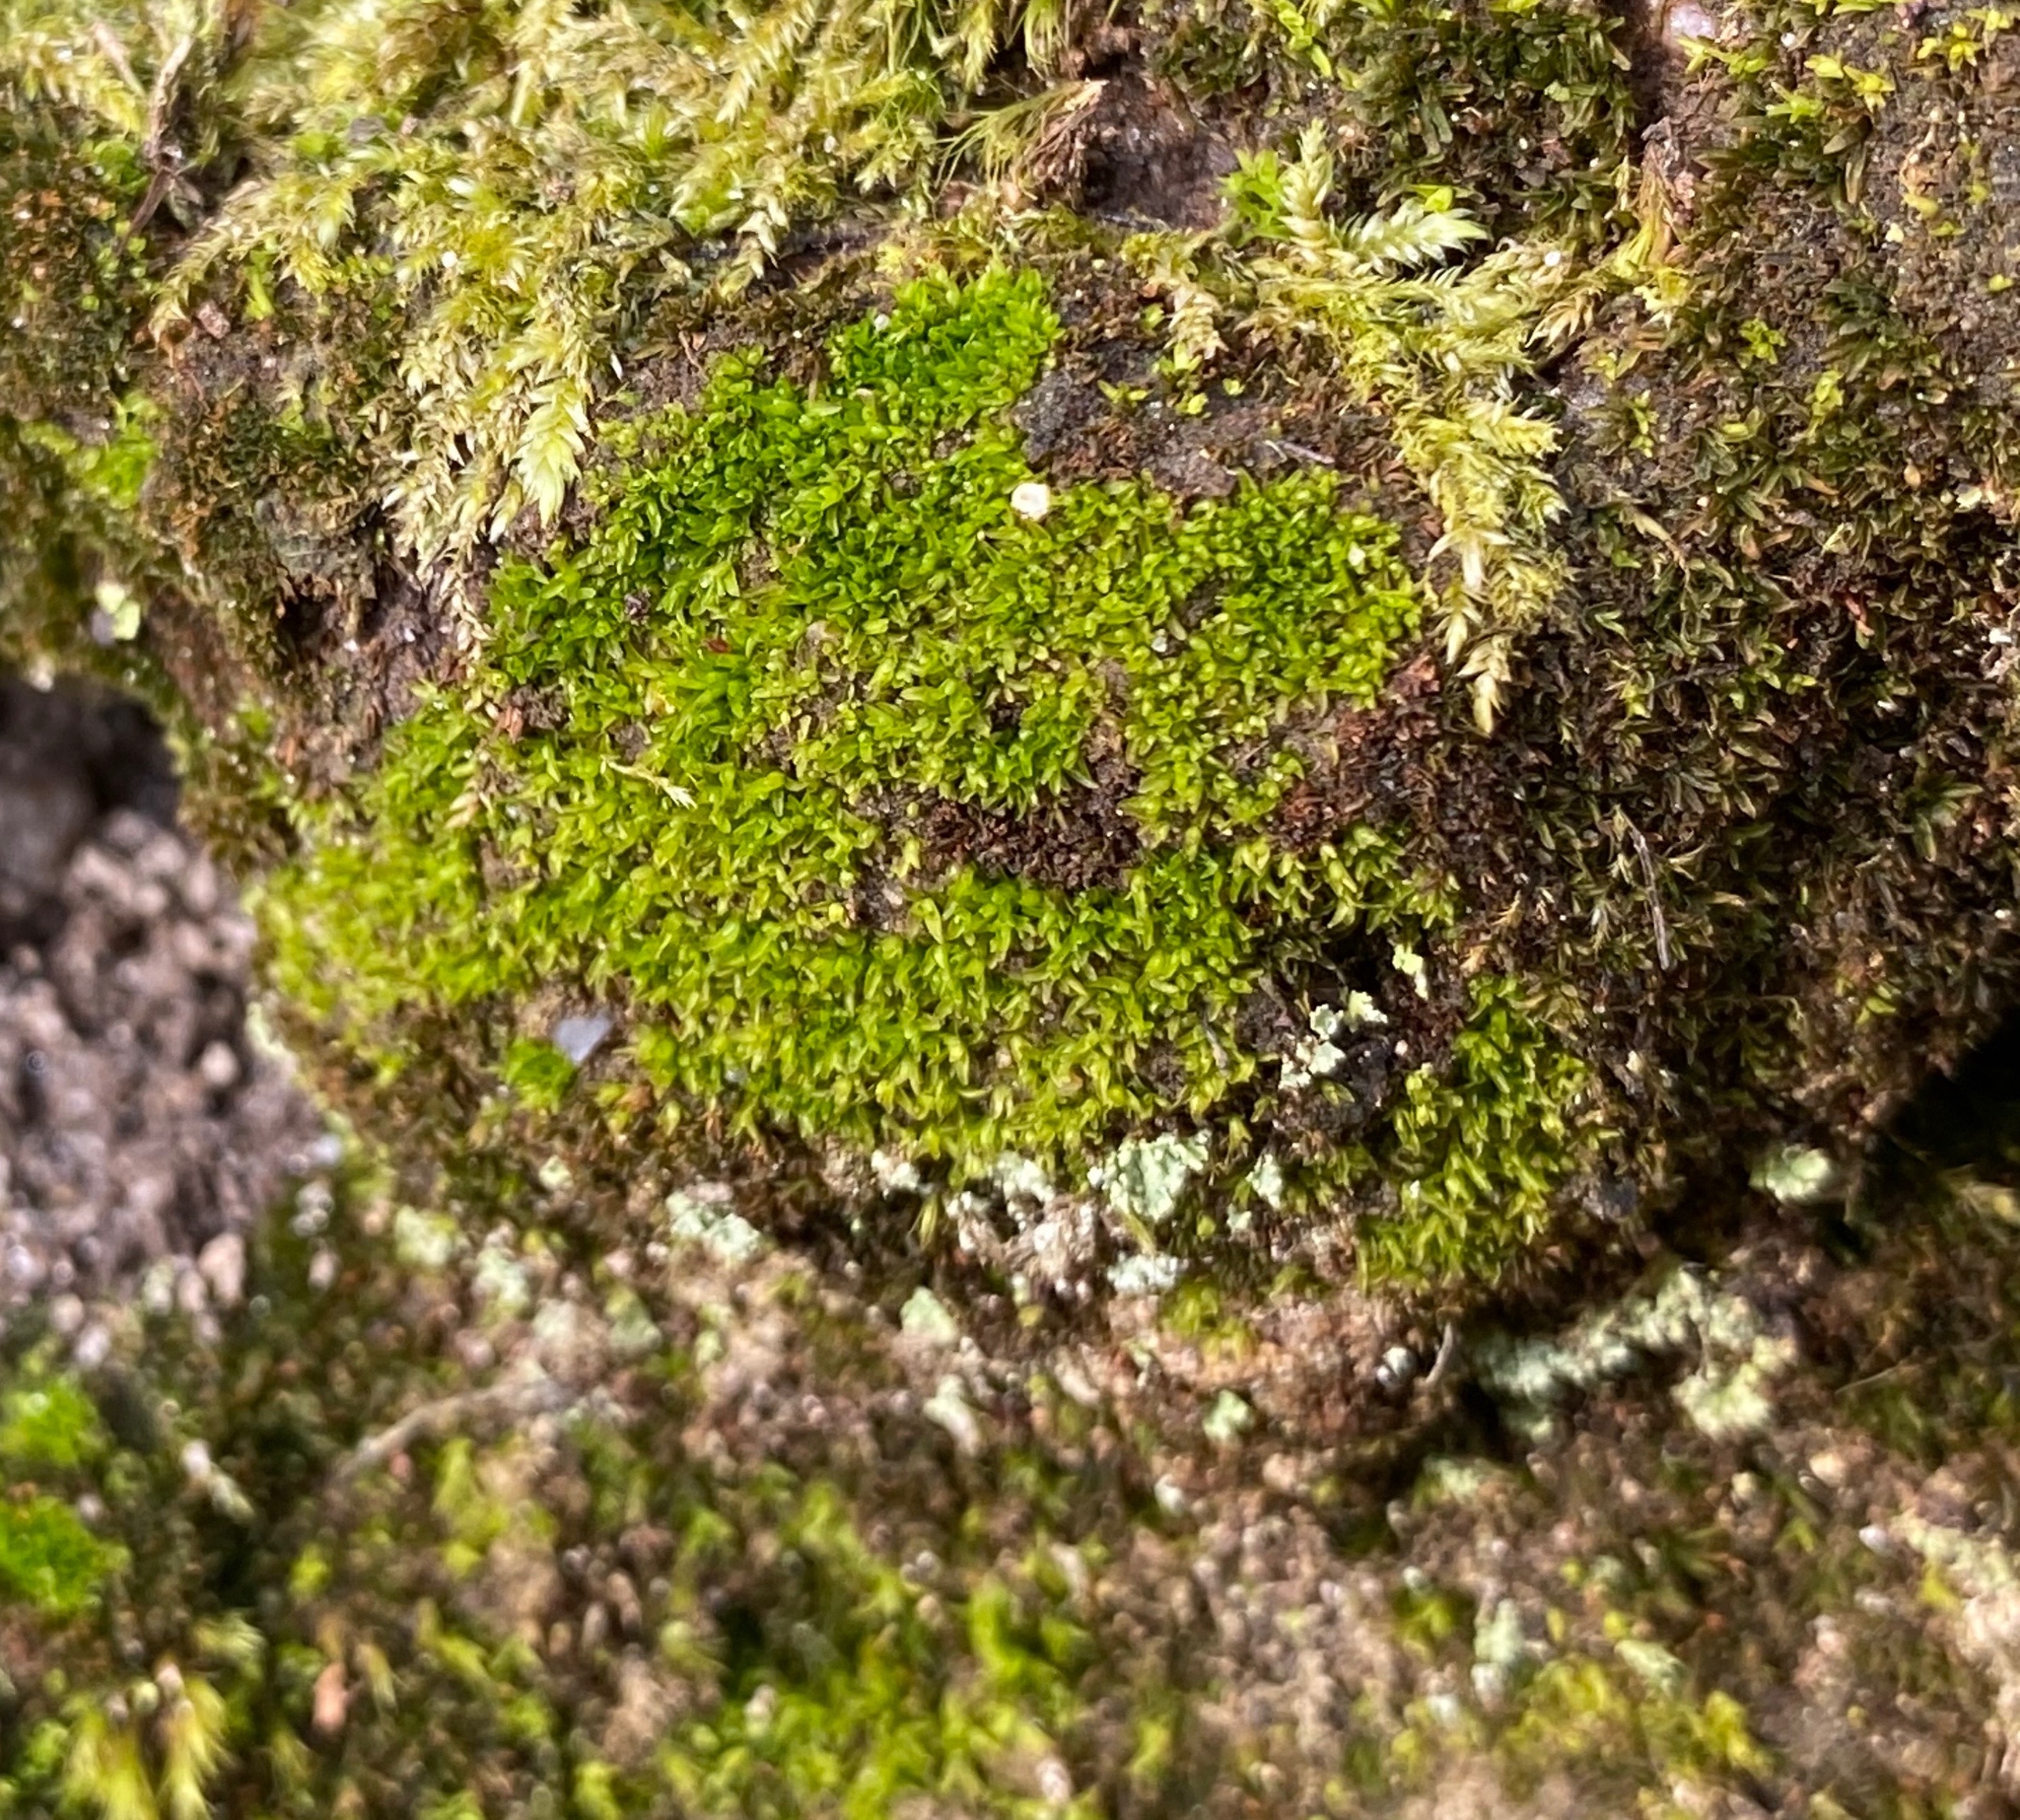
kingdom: Plantae
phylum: Bryophyta
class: Bryopsida
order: Diphysciales
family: Diphysciaceae
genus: Diphyscium
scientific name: Diphyscium foliosum
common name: Stilkløs sækkapsel
